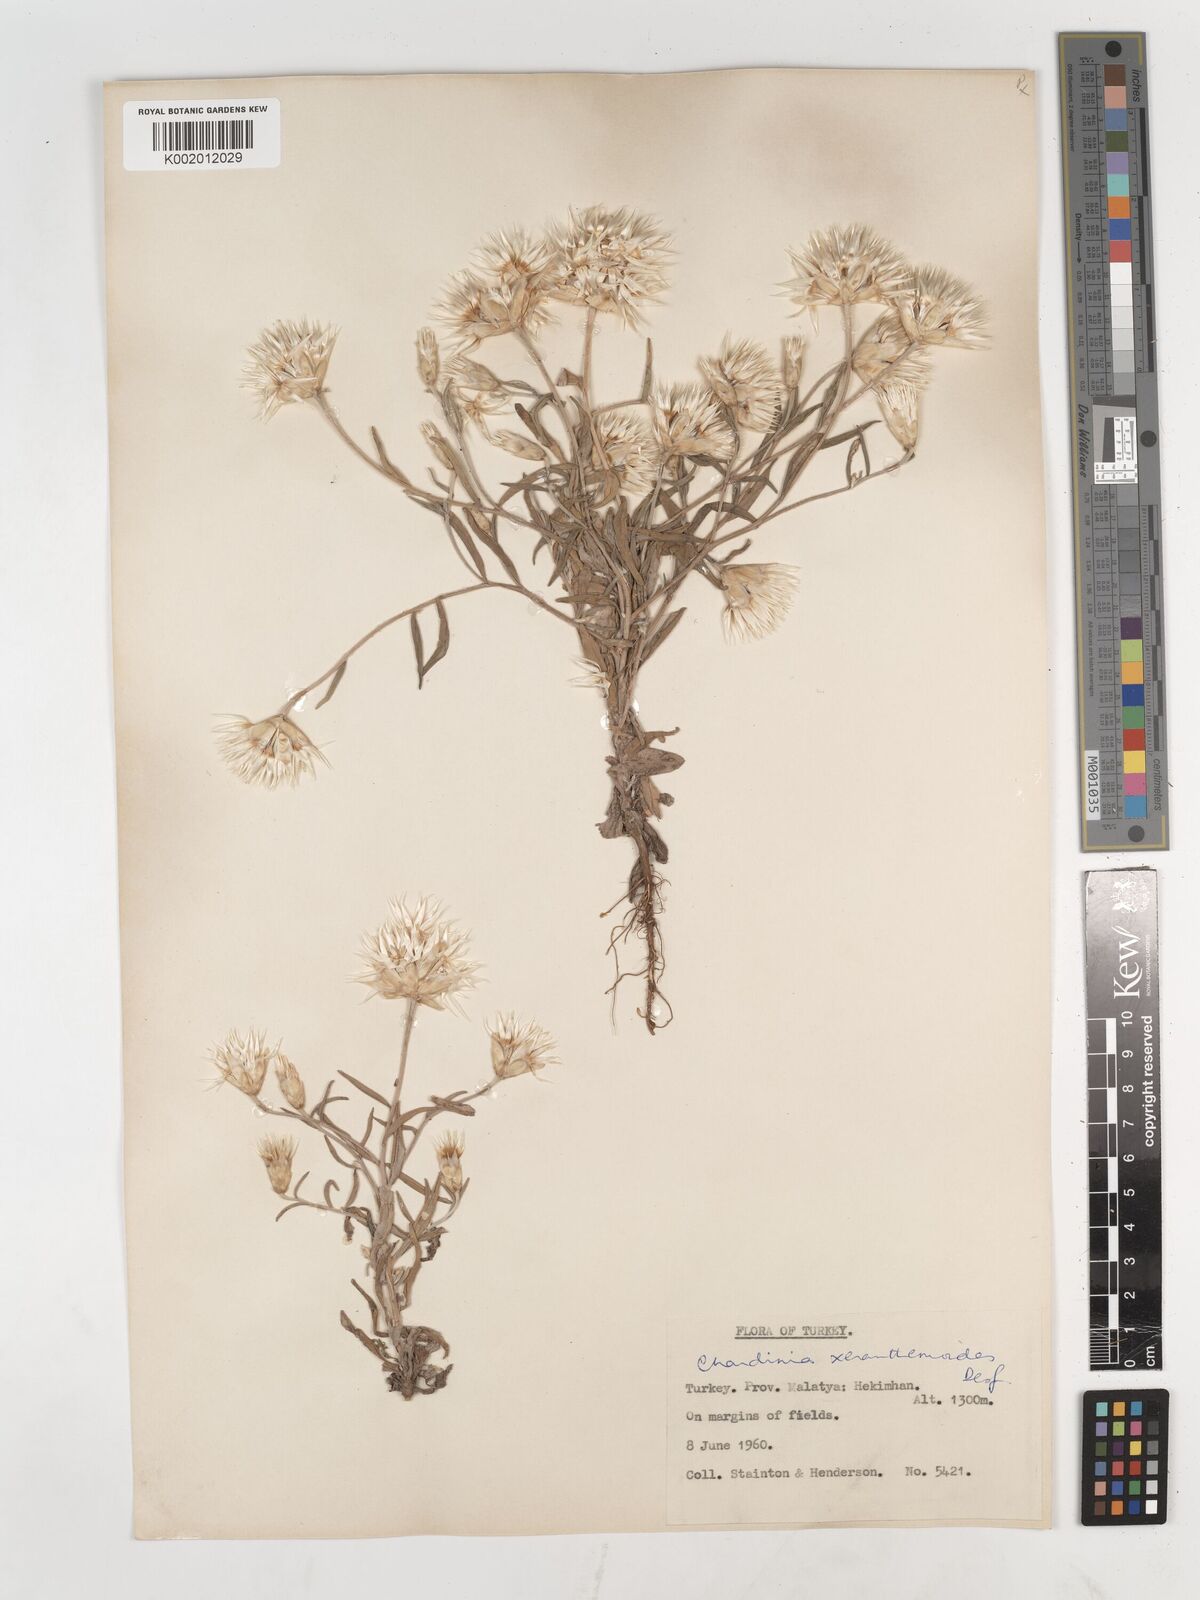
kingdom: Plantae
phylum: Tracheophyta
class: Magnoliopsida
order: Asterales
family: Asteraceae
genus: Chardinia
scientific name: Chardinia orientalis
